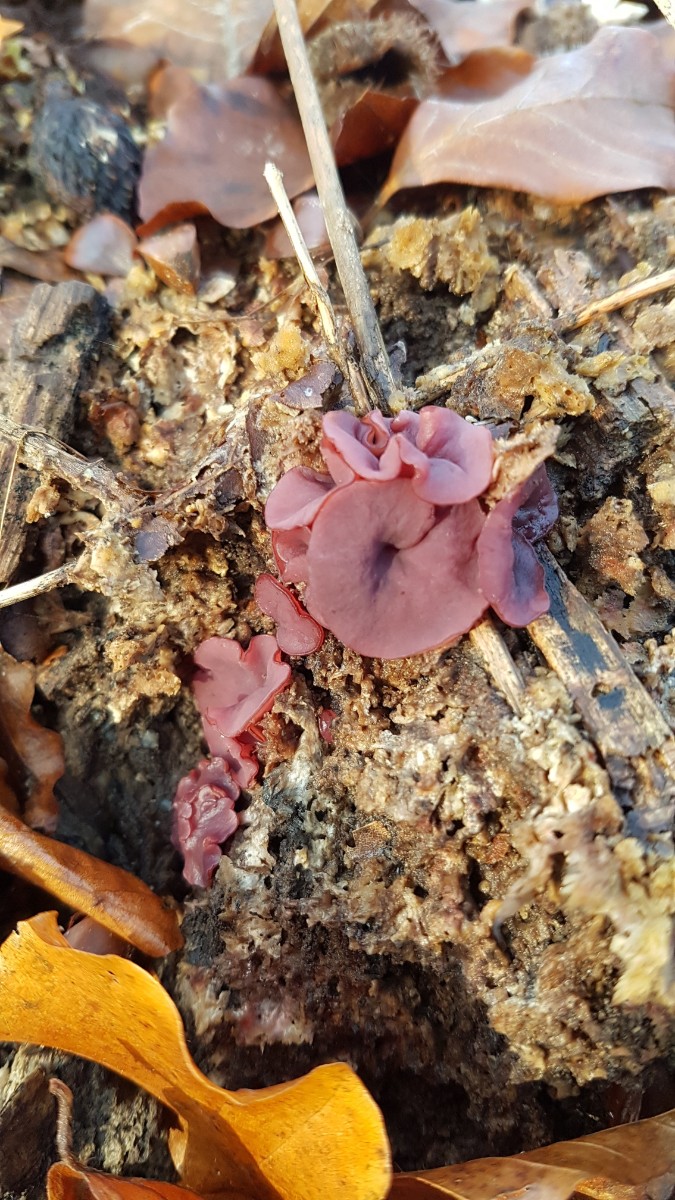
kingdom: Fungi
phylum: Ascomycota
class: Leotiomycetes
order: Helotiales
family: Gelatinodiscaceae
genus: Ascocoryne
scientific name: Ascocoryne cylichnium
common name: stor sejskive
